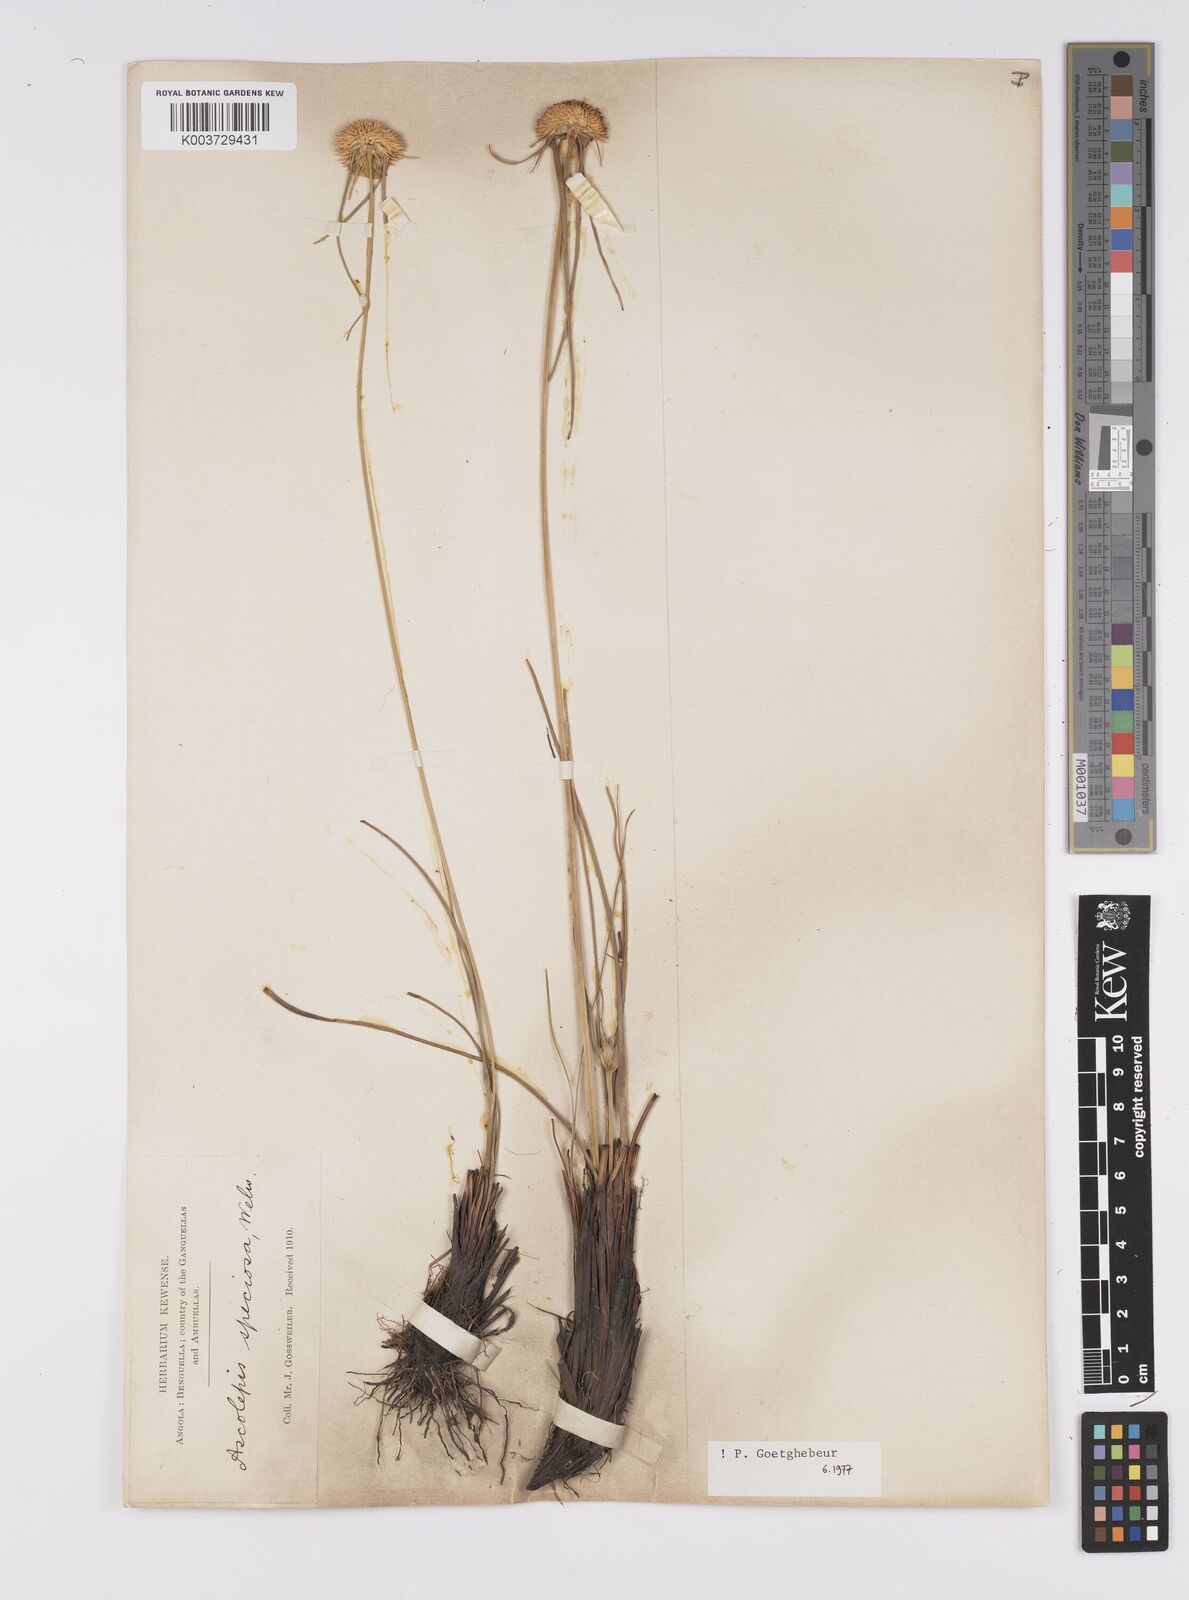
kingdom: Plantae
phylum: Tracheophyta
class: Liliopsida
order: Poales
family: Cyperaceae
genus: Cyperus
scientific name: Cyperus
